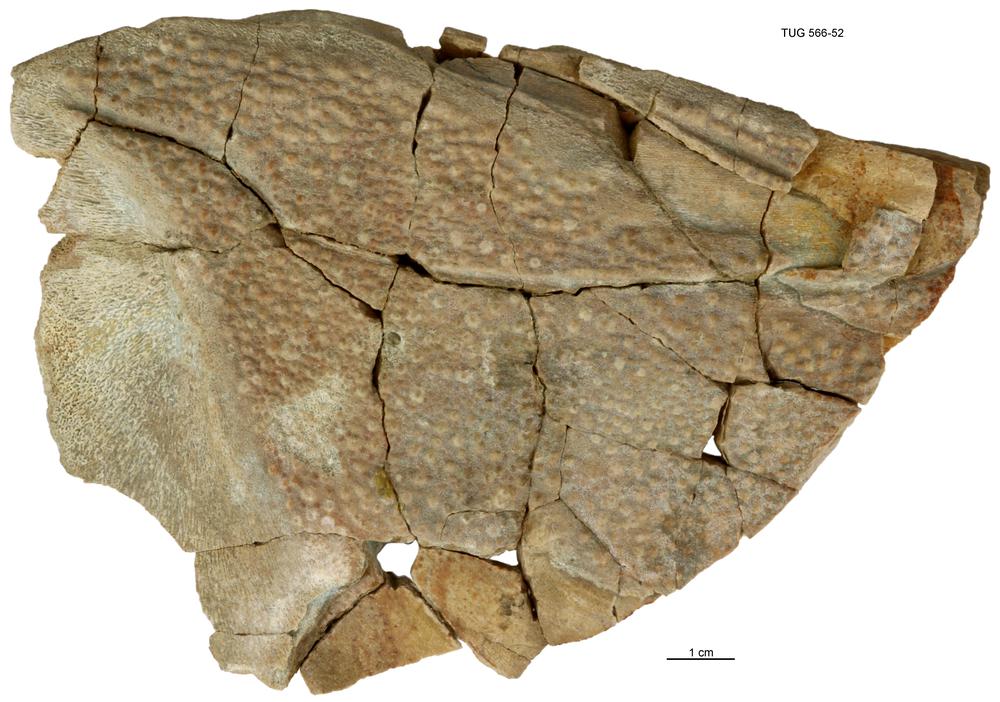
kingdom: Animalia
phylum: Chordata
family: Heterosteidae
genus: Heterosteus
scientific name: Heterosteus
